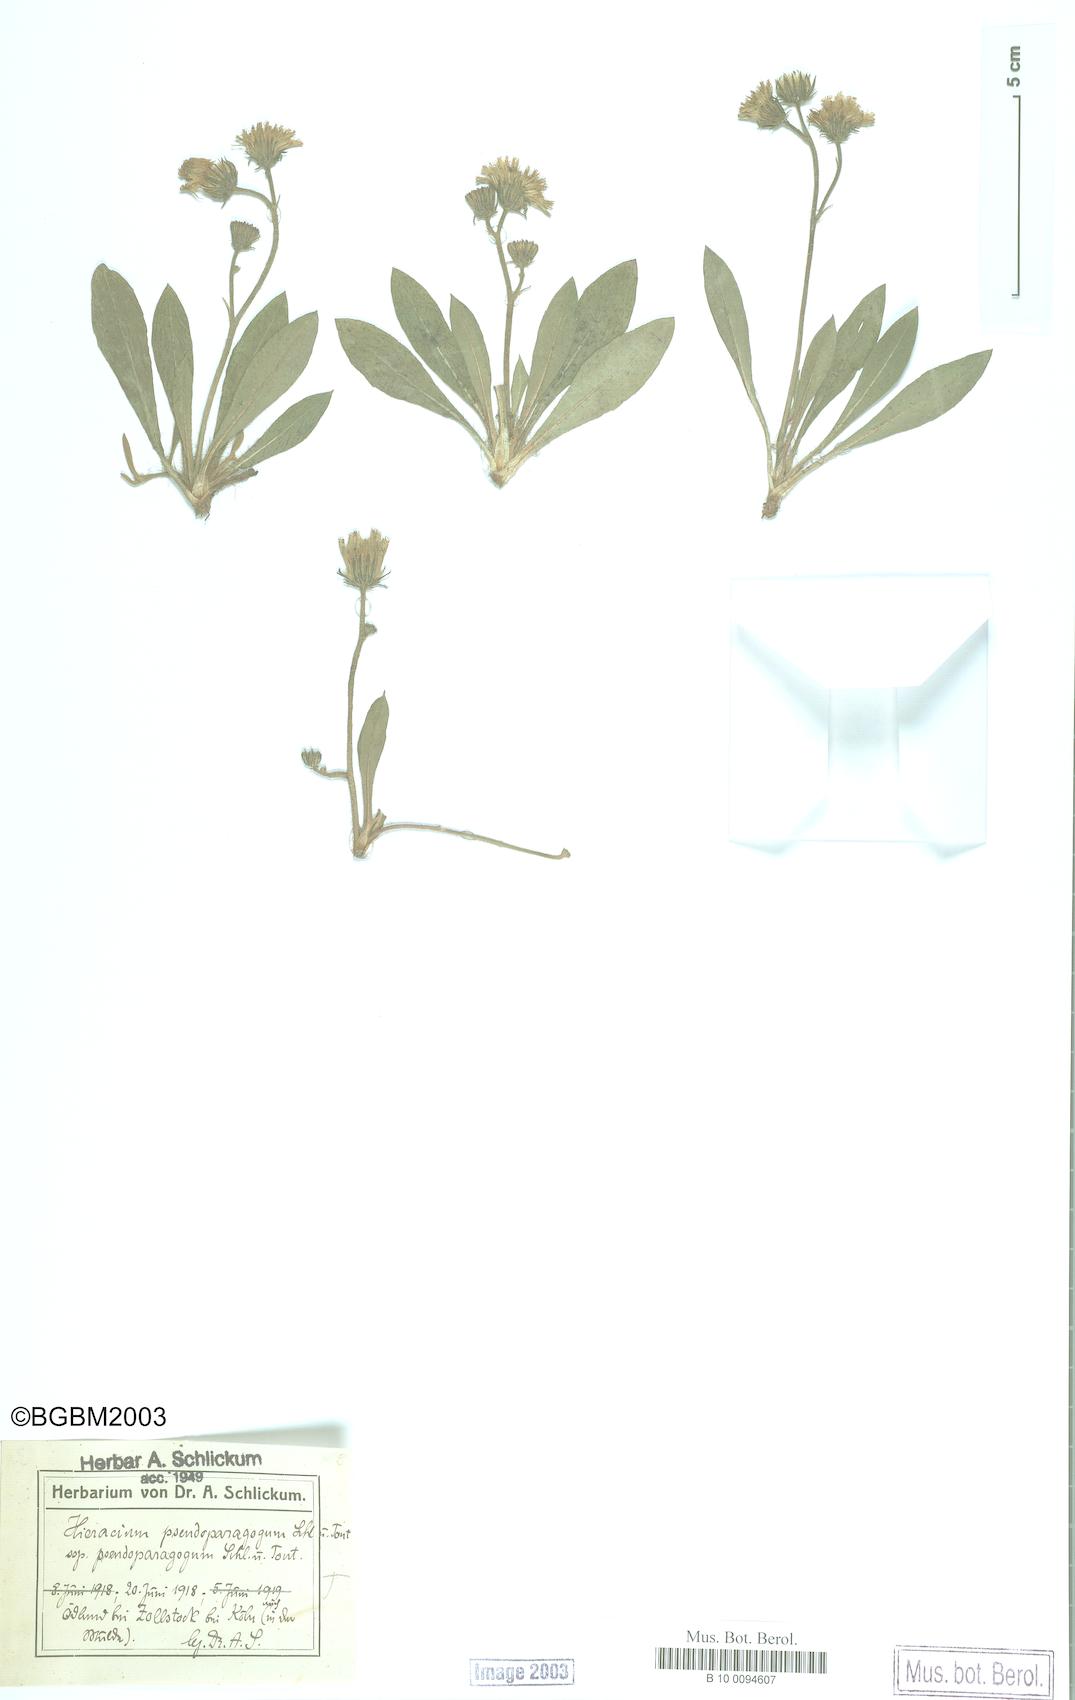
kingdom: Plantae
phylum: Tracheophyta
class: Magnoliopsida
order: Asterales
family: Asteraceae
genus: Pilosella
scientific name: Pilosella pseudoparagoga
